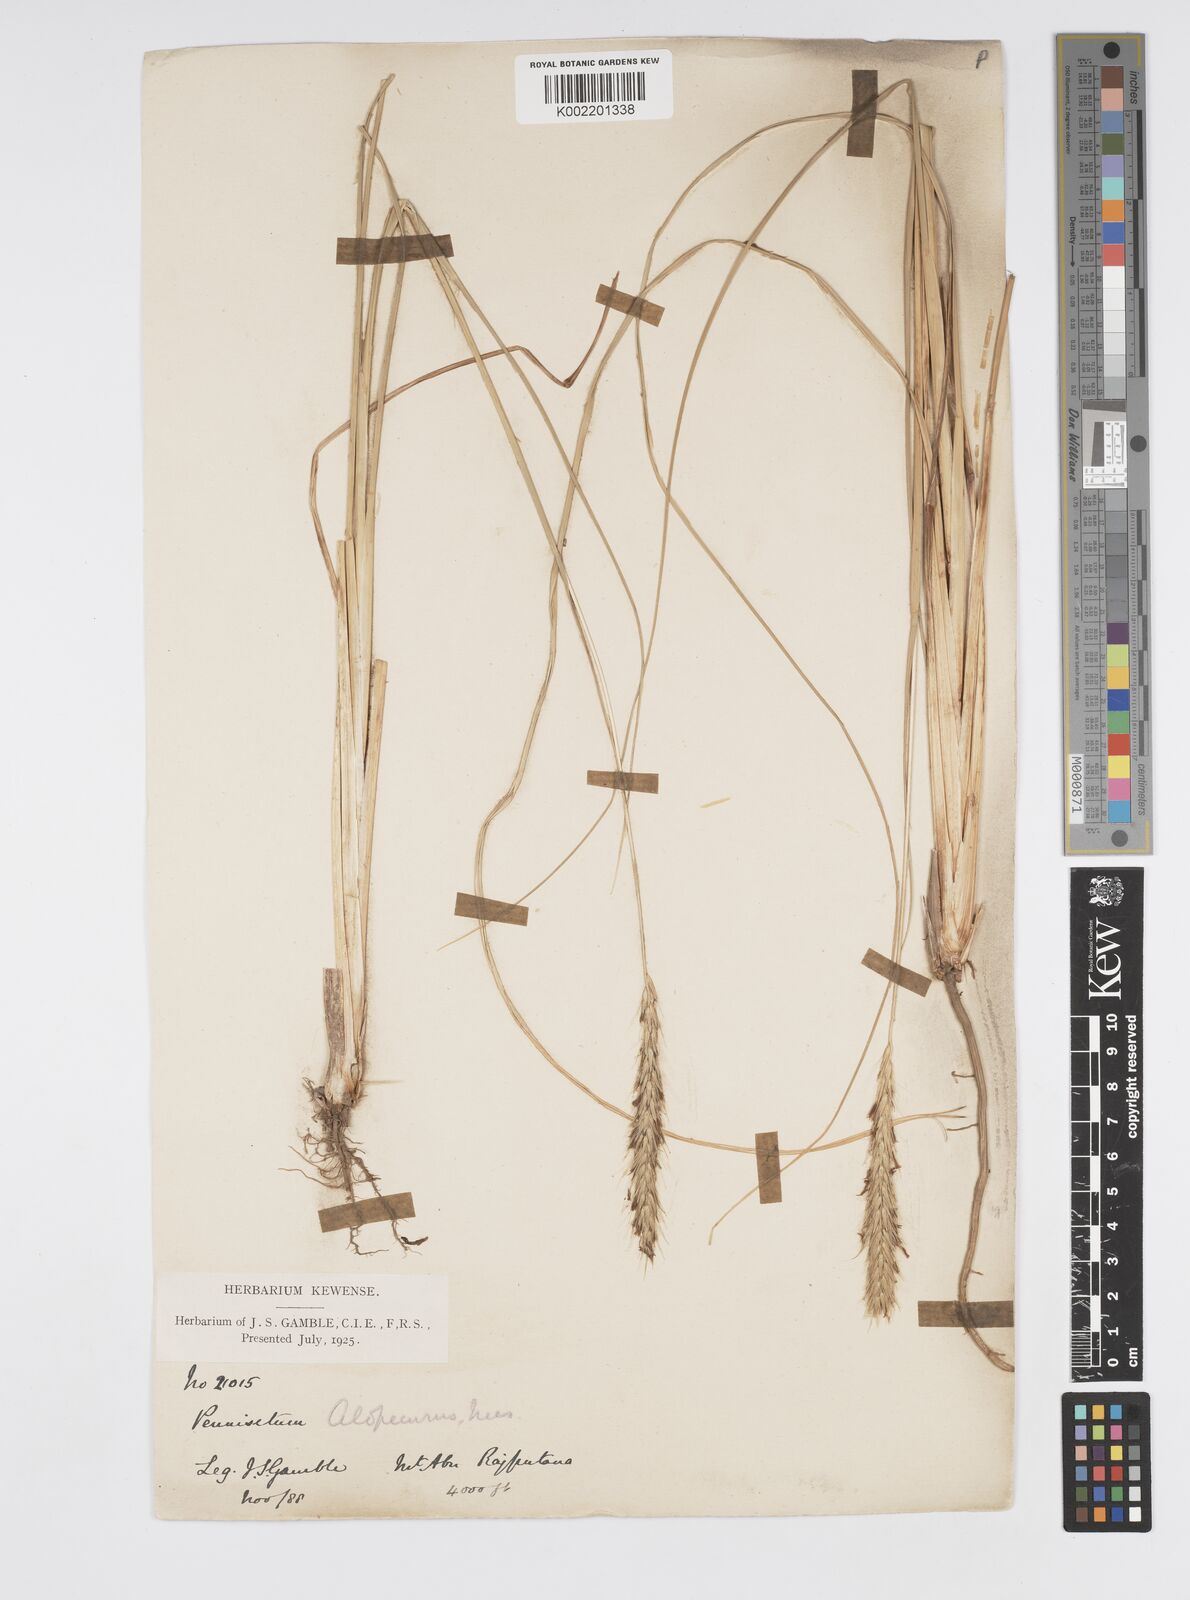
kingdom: Plantae
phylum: Tracheophyta
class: Liliopsida
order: Poales
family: Poaceae
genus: Cenchrus
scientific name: Cenchrus hohenackeri
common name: Moya grass
